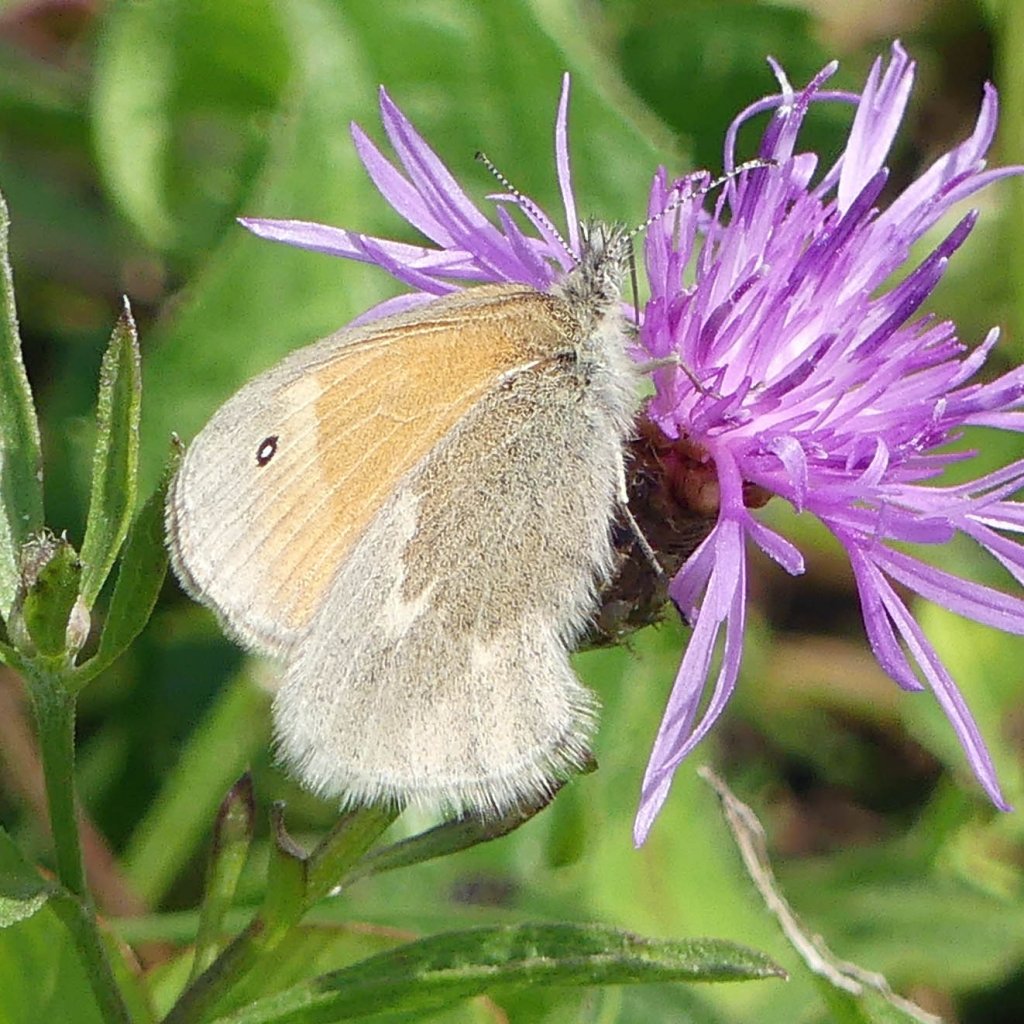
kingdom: Animalia
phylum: Arthropoda
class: Insecta
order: Lepidoptera
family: Nymphalidae
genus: Coenonympha
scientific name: Coenonympha tullia
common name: Large Heath
